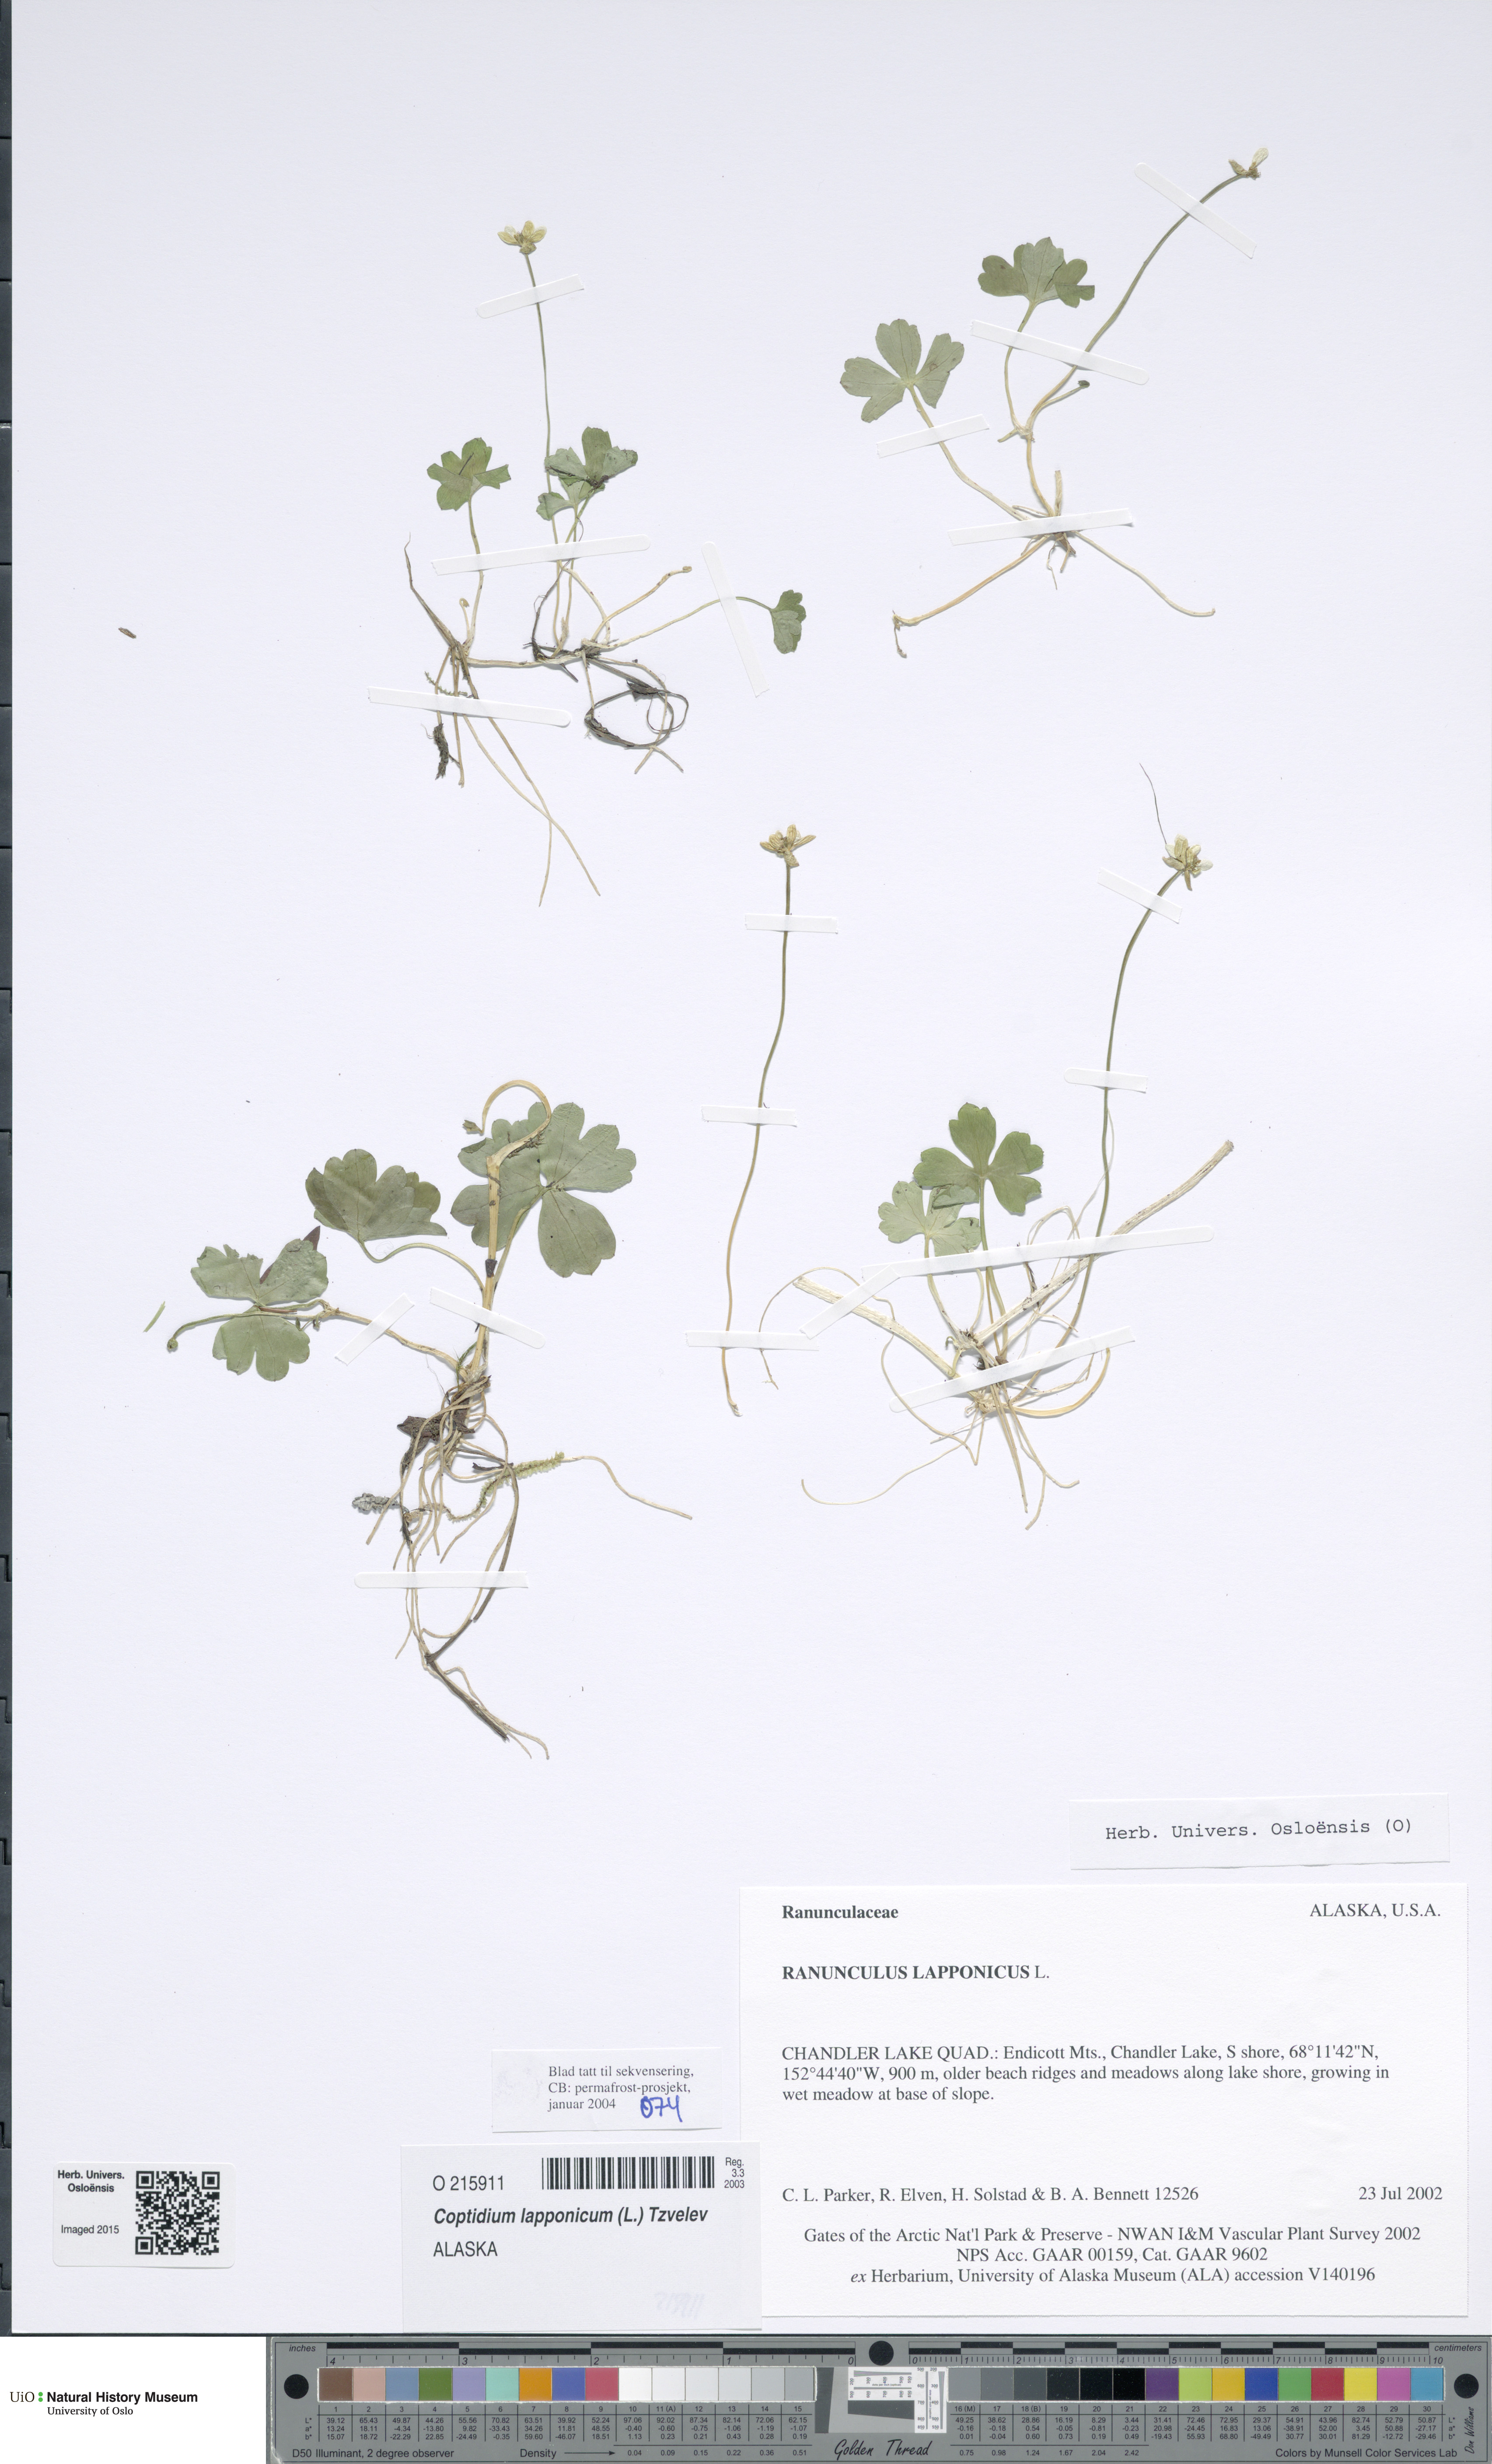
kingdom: Plantae
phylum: Tracheophyta
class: Magnoliopsida
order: Ranunculales
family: Ranunculaceae
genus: Coptidium
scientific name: Coptidium lapponicum
